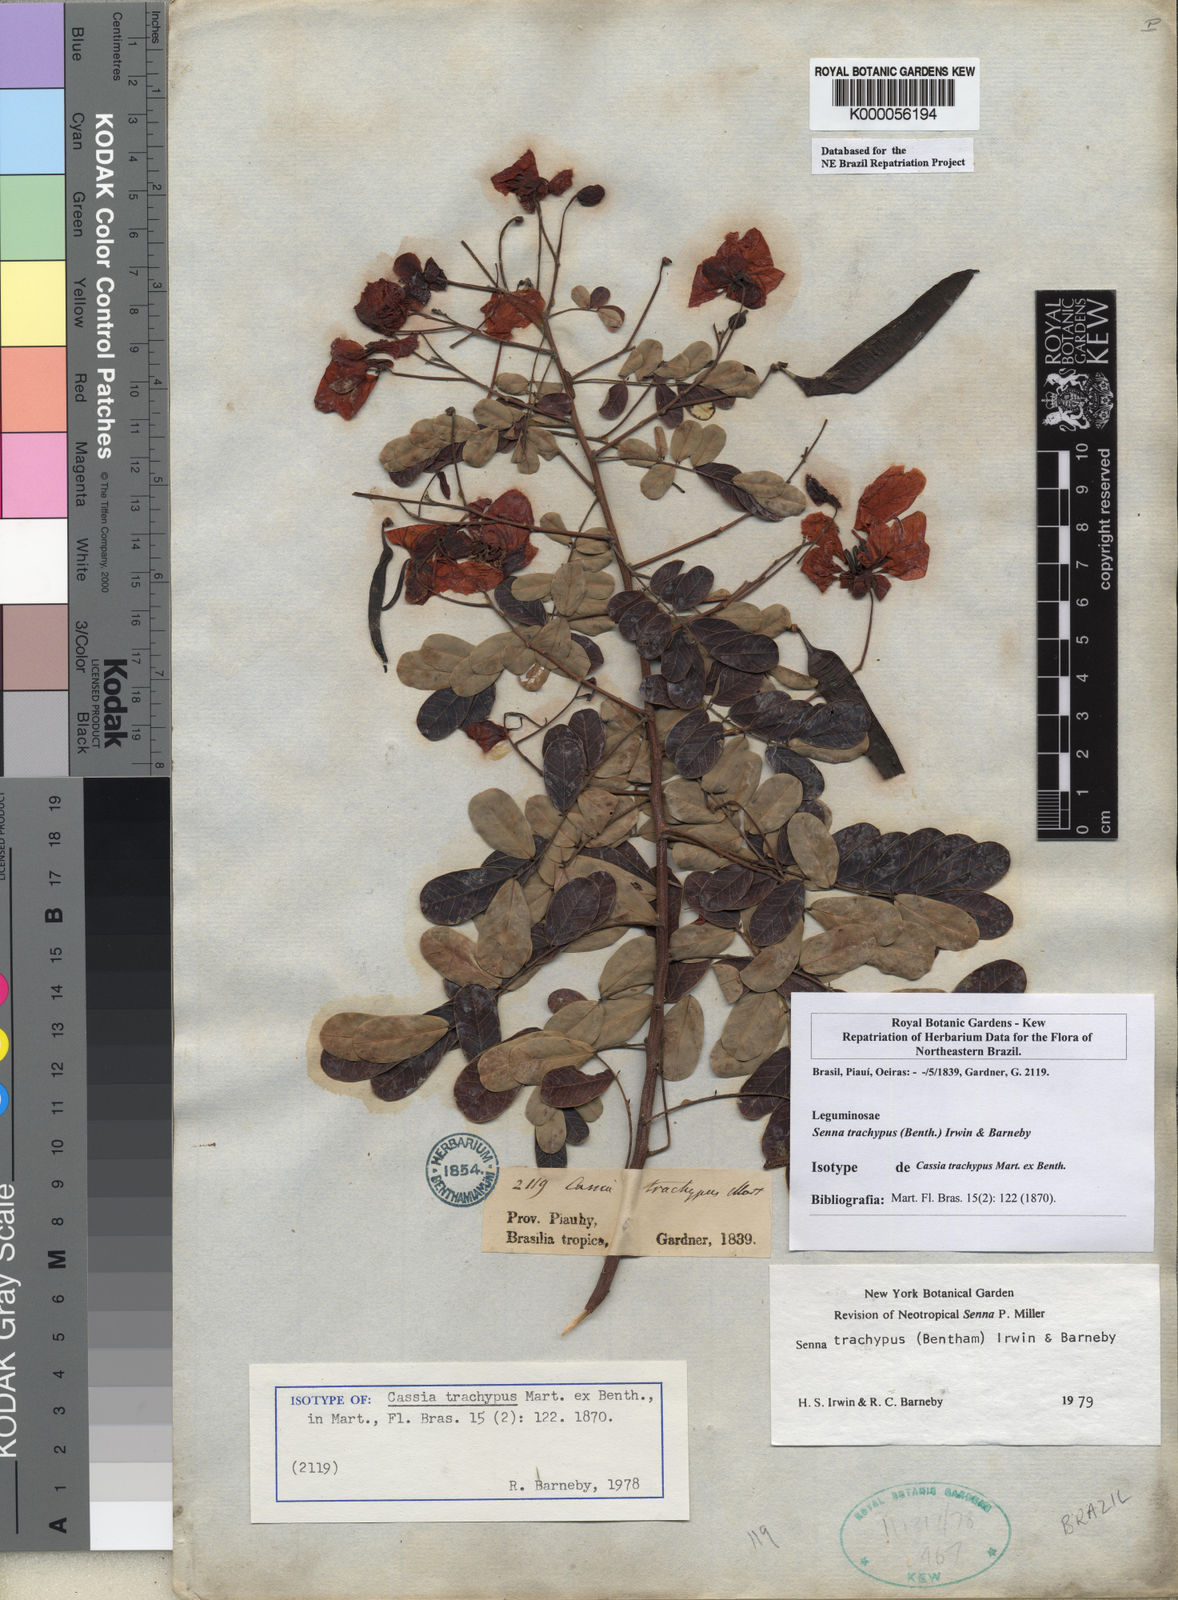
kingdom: Plantae
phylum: Tracheophyta
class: Magnoliopsida
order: Fabales
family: Fabaceae
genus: Senna
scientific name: Senna trachypus
